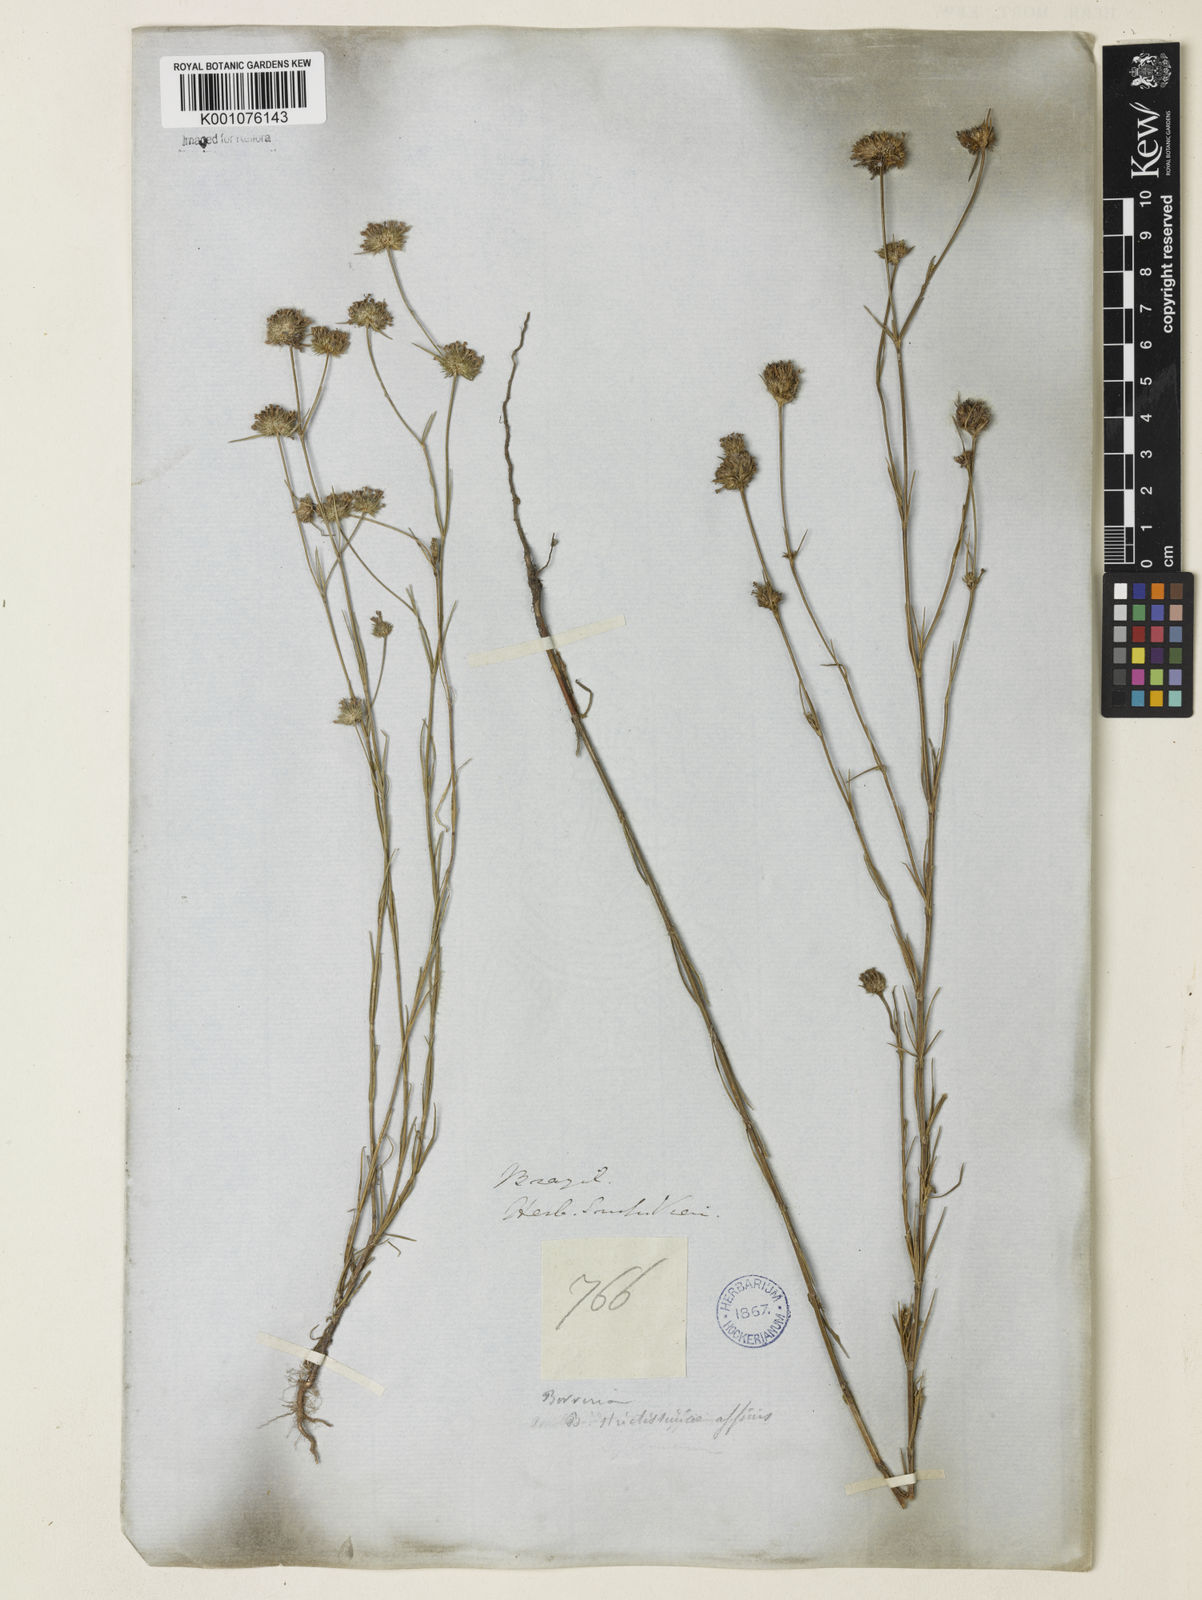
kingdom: Plantae
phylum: Tracheophyta
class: Magnoliopsida
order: Gentianales
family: Rubiaceae
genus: Spermacoce
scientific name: Spermacoce gracillima
